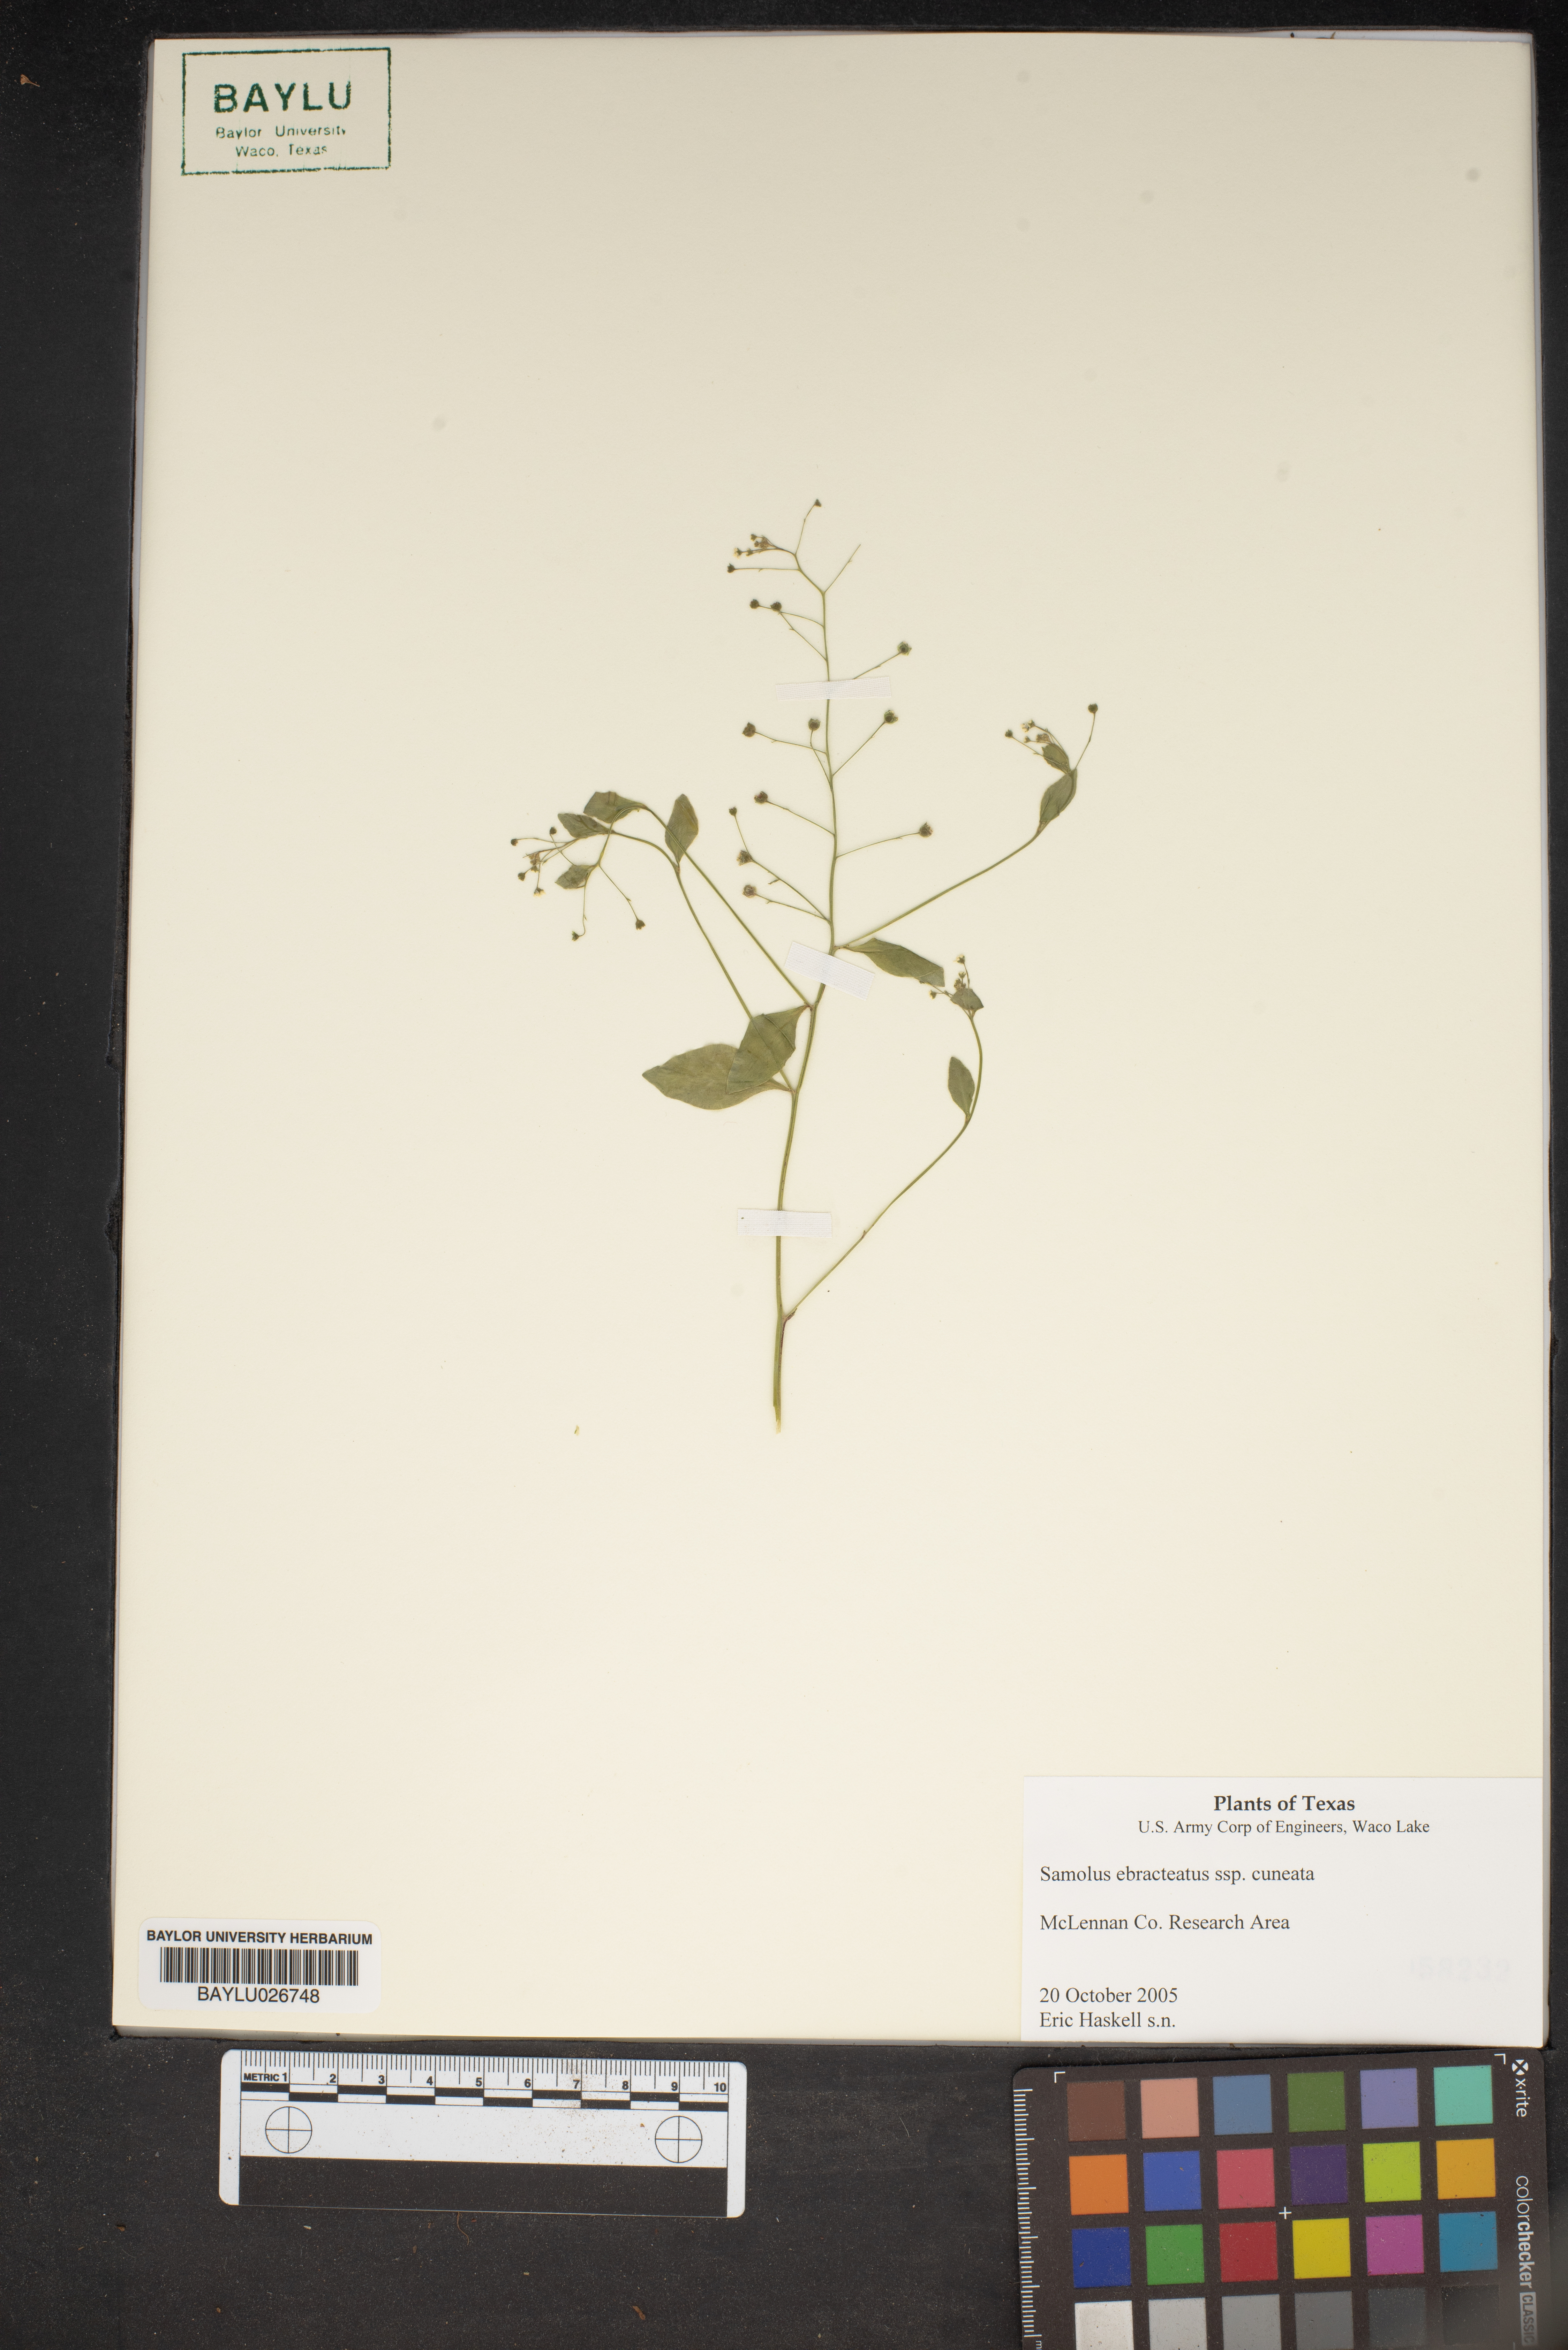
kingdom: Plantae
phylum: Tracheophyta
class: Magnoliopsida
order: Ericales
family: Primulaceae
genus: Samolus
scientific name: Samolus ebracteatus
